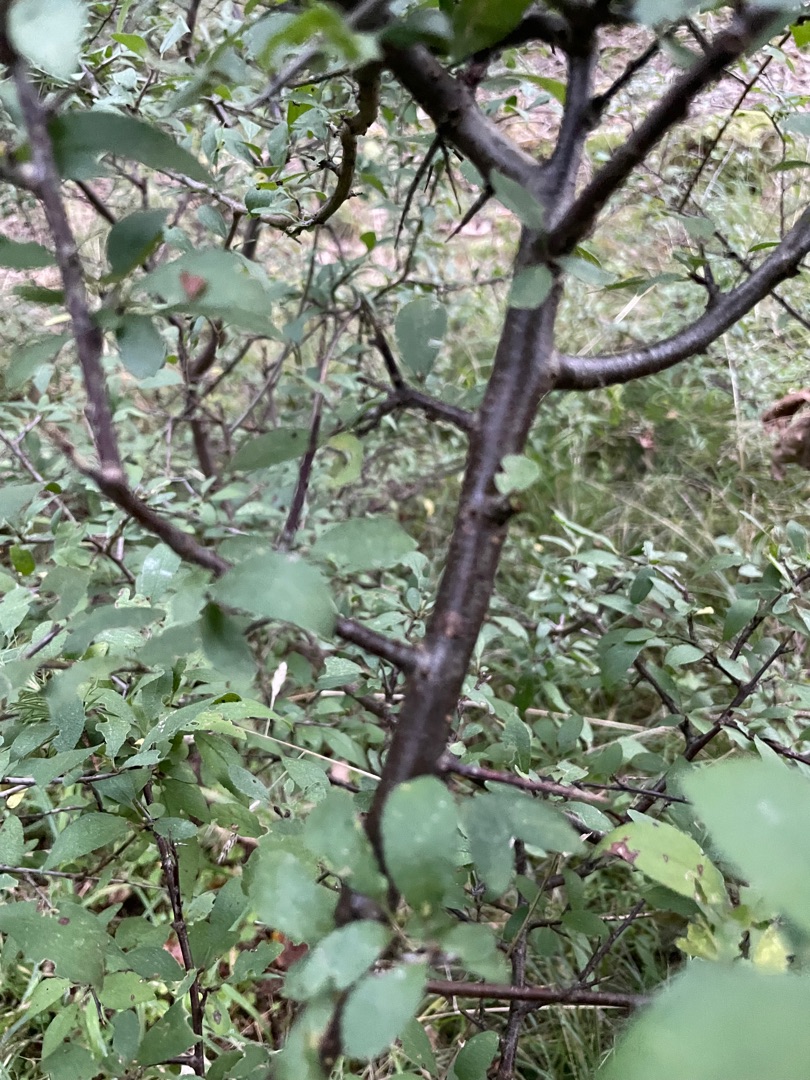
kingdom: Plantae
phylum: Tracheophyta
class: Magnoliopsida
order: Rosales
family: Rosaceae
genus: Prunus
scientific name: Prunus spinosa
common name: Slåen
